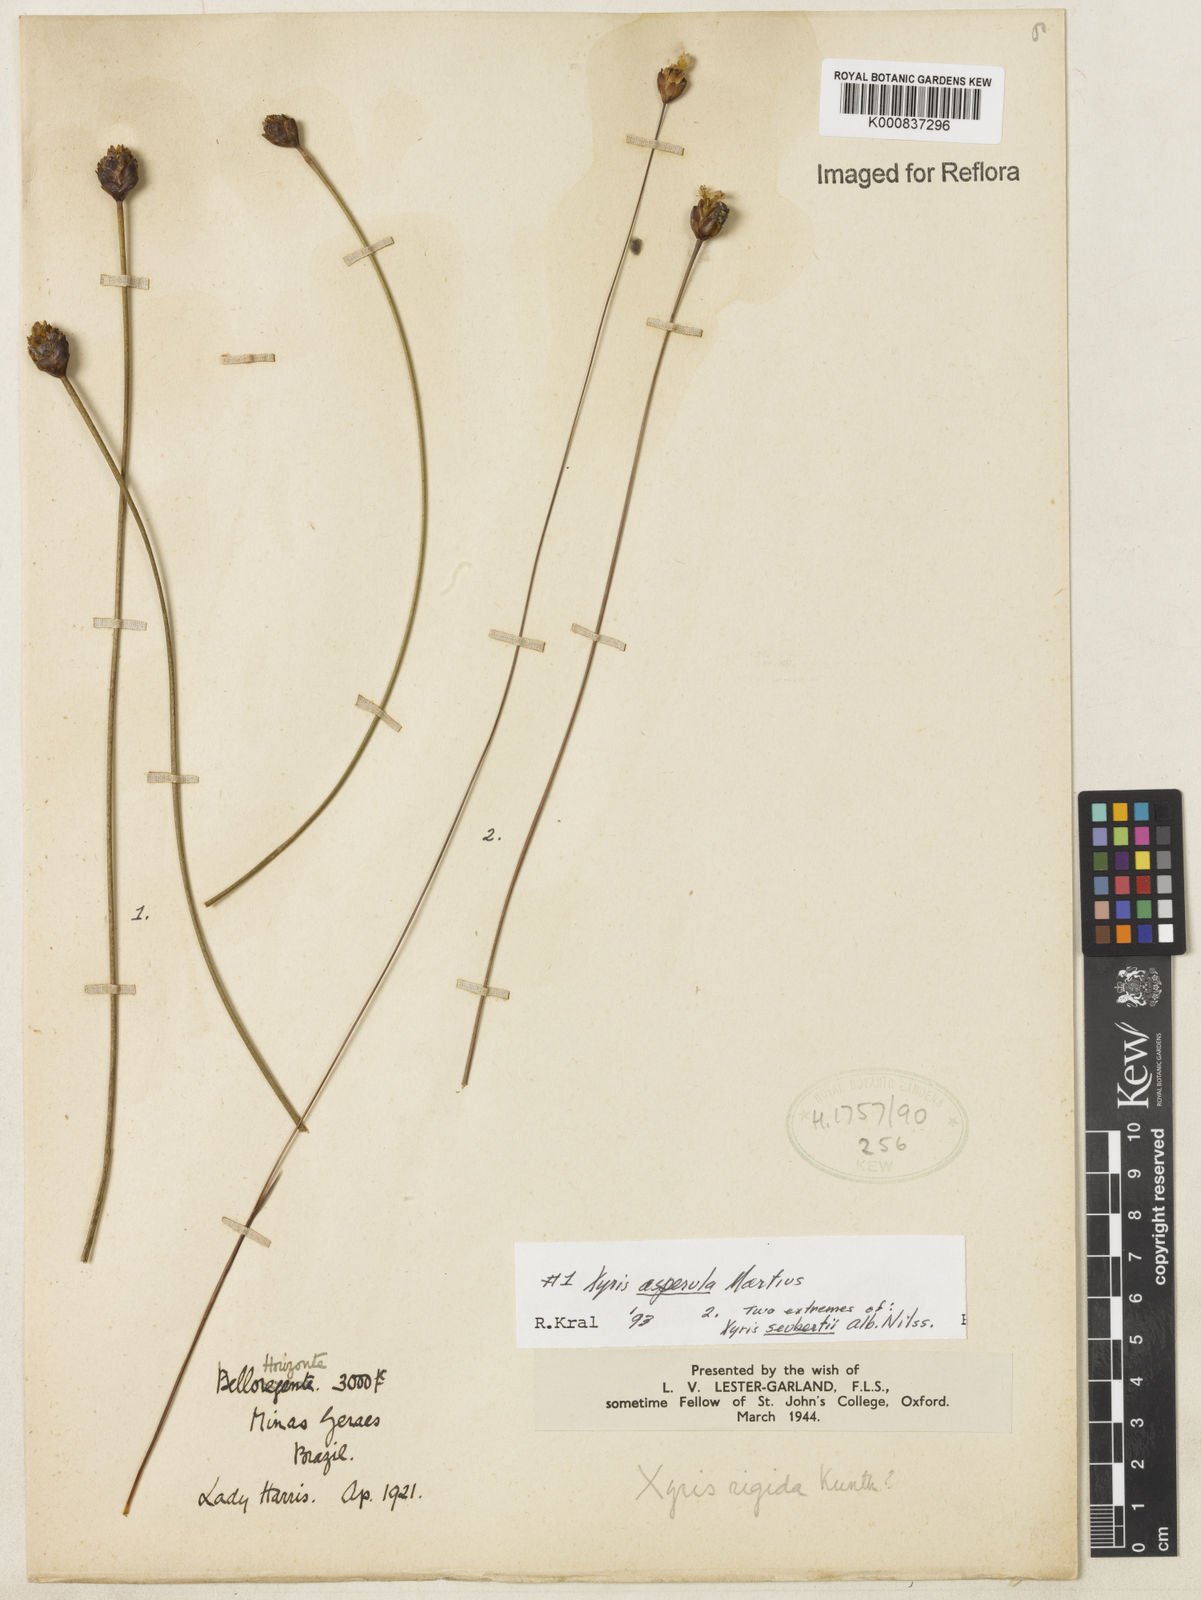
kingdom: Plantae
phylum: Tracheophyta
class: Liliopsida
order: Poales
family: Xyridaceae
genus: Xyris
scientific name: Xyris asperula
